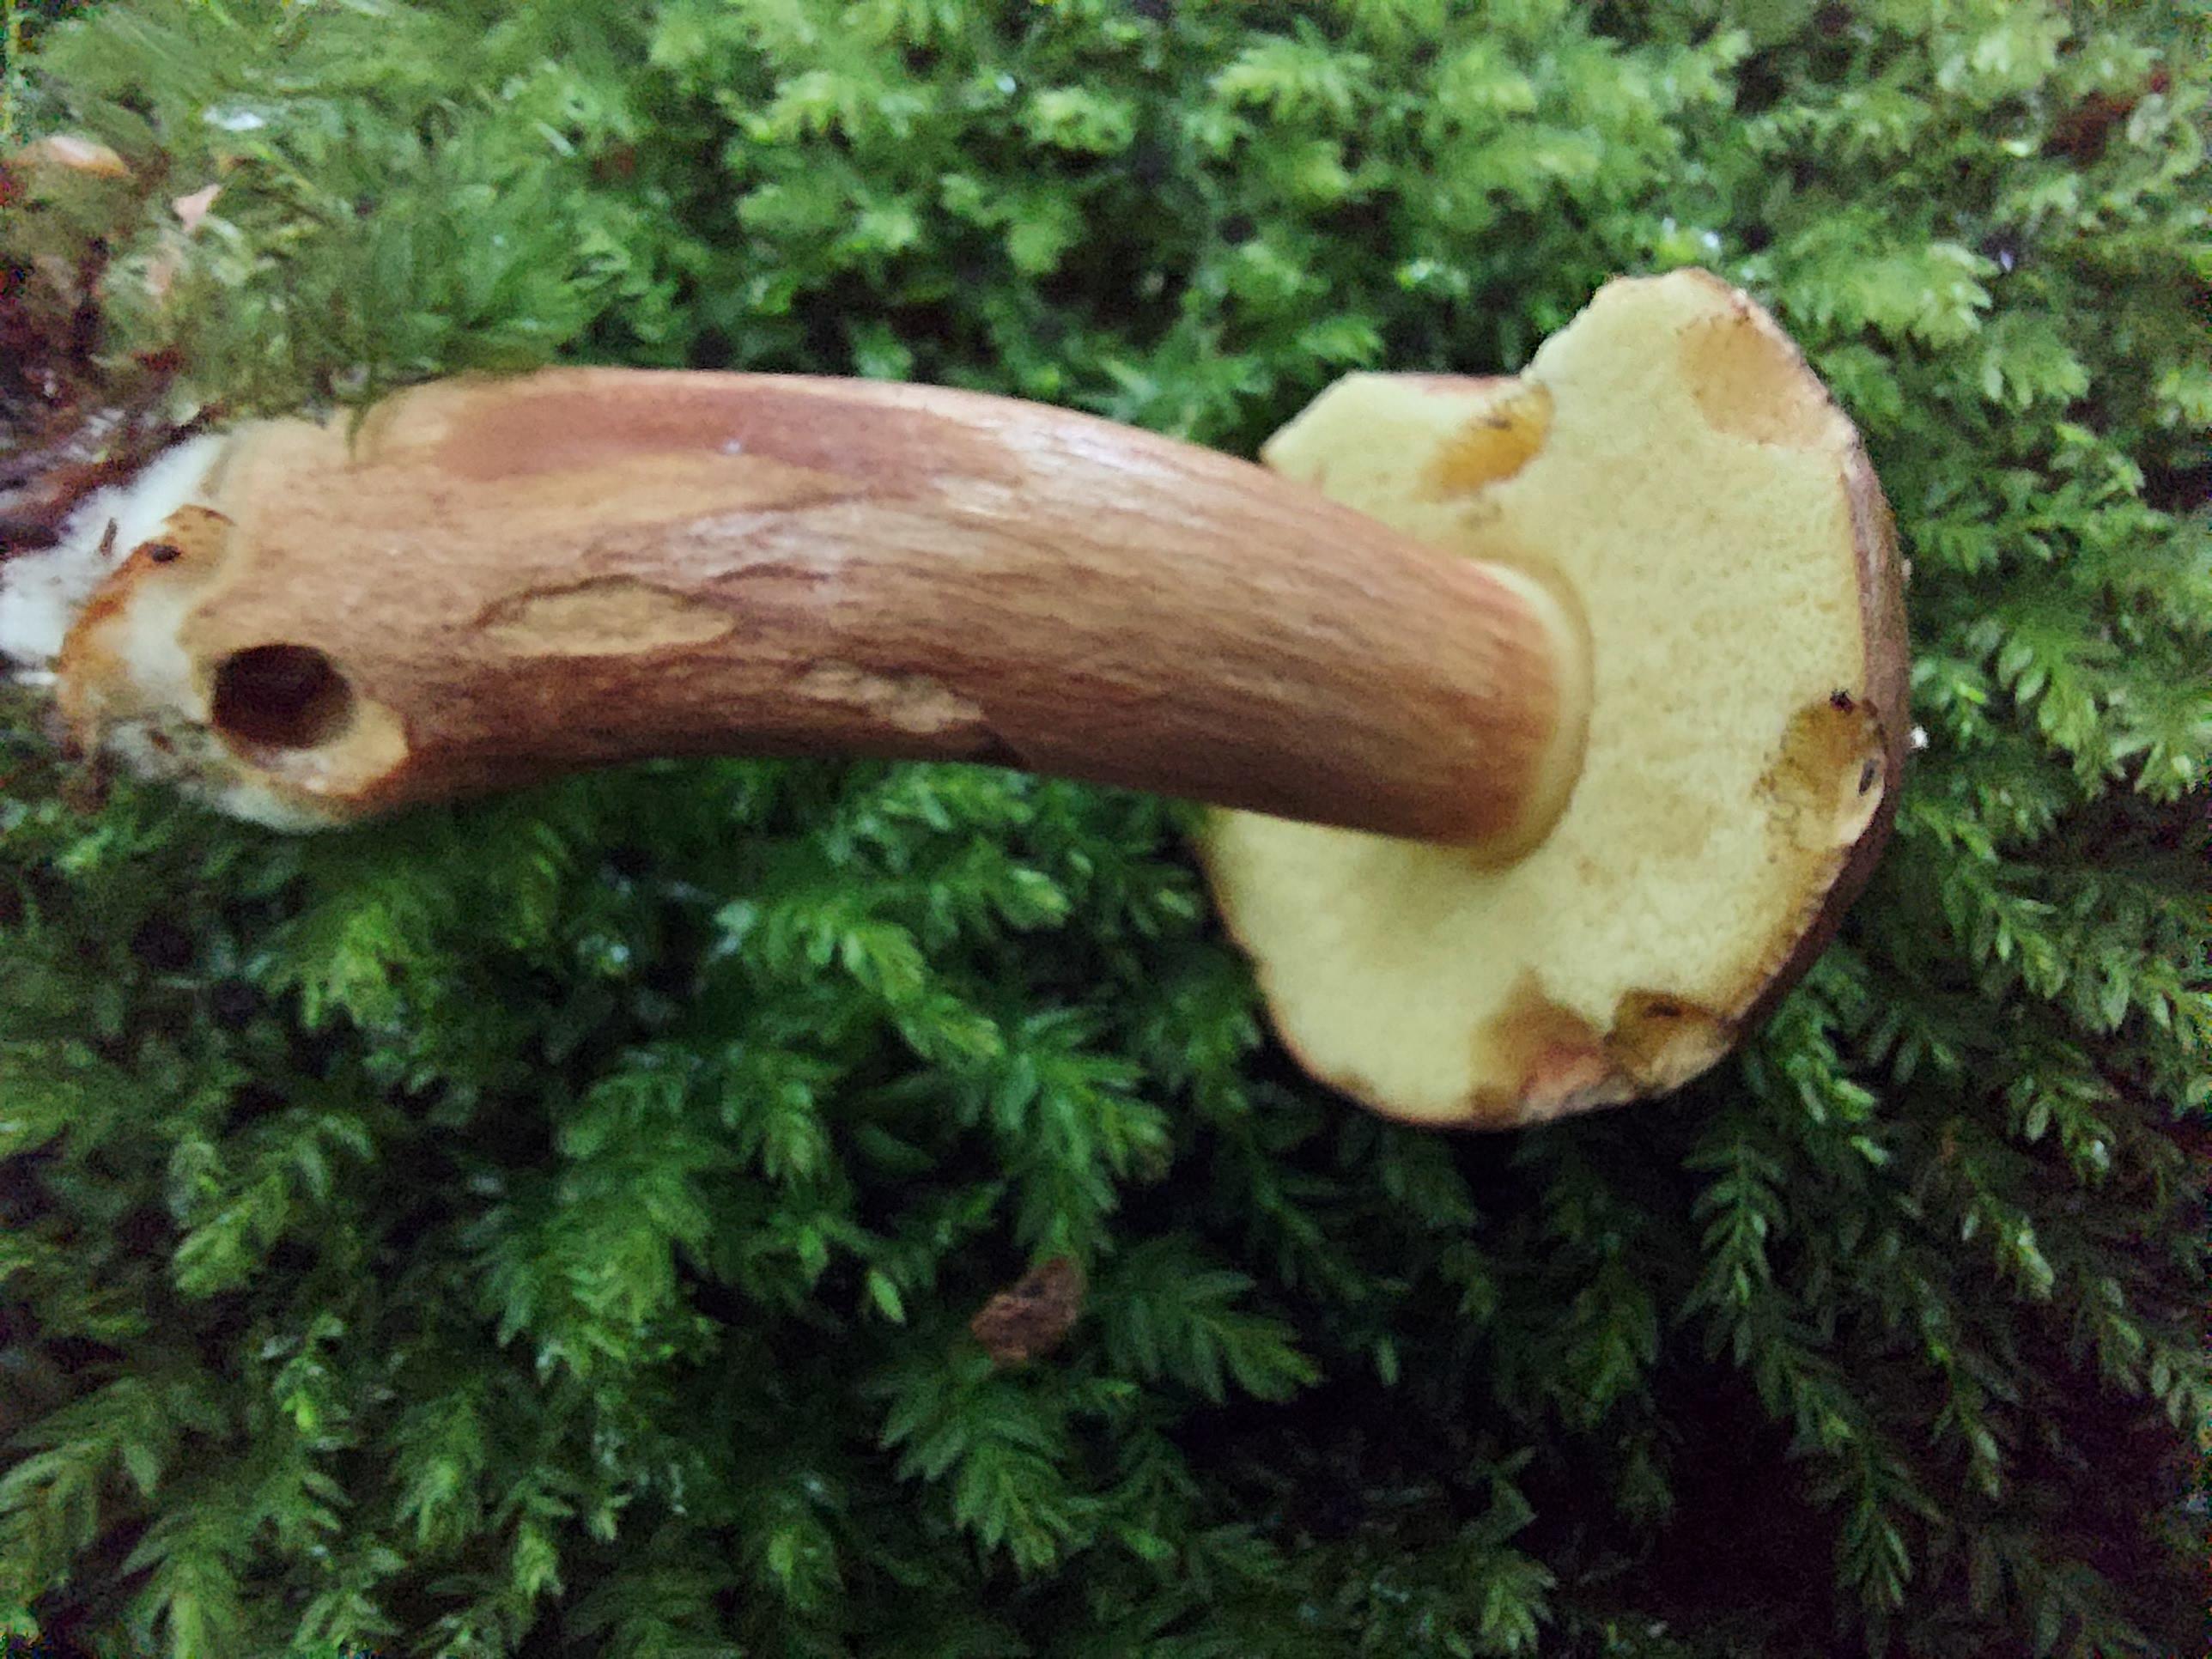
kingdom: Fungi
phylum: Basidiomycota
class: Agaricomycetes
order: Boletales
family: Boletaceae
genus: Imleria
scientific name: Imleria badia
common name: brunstokket rørhat
